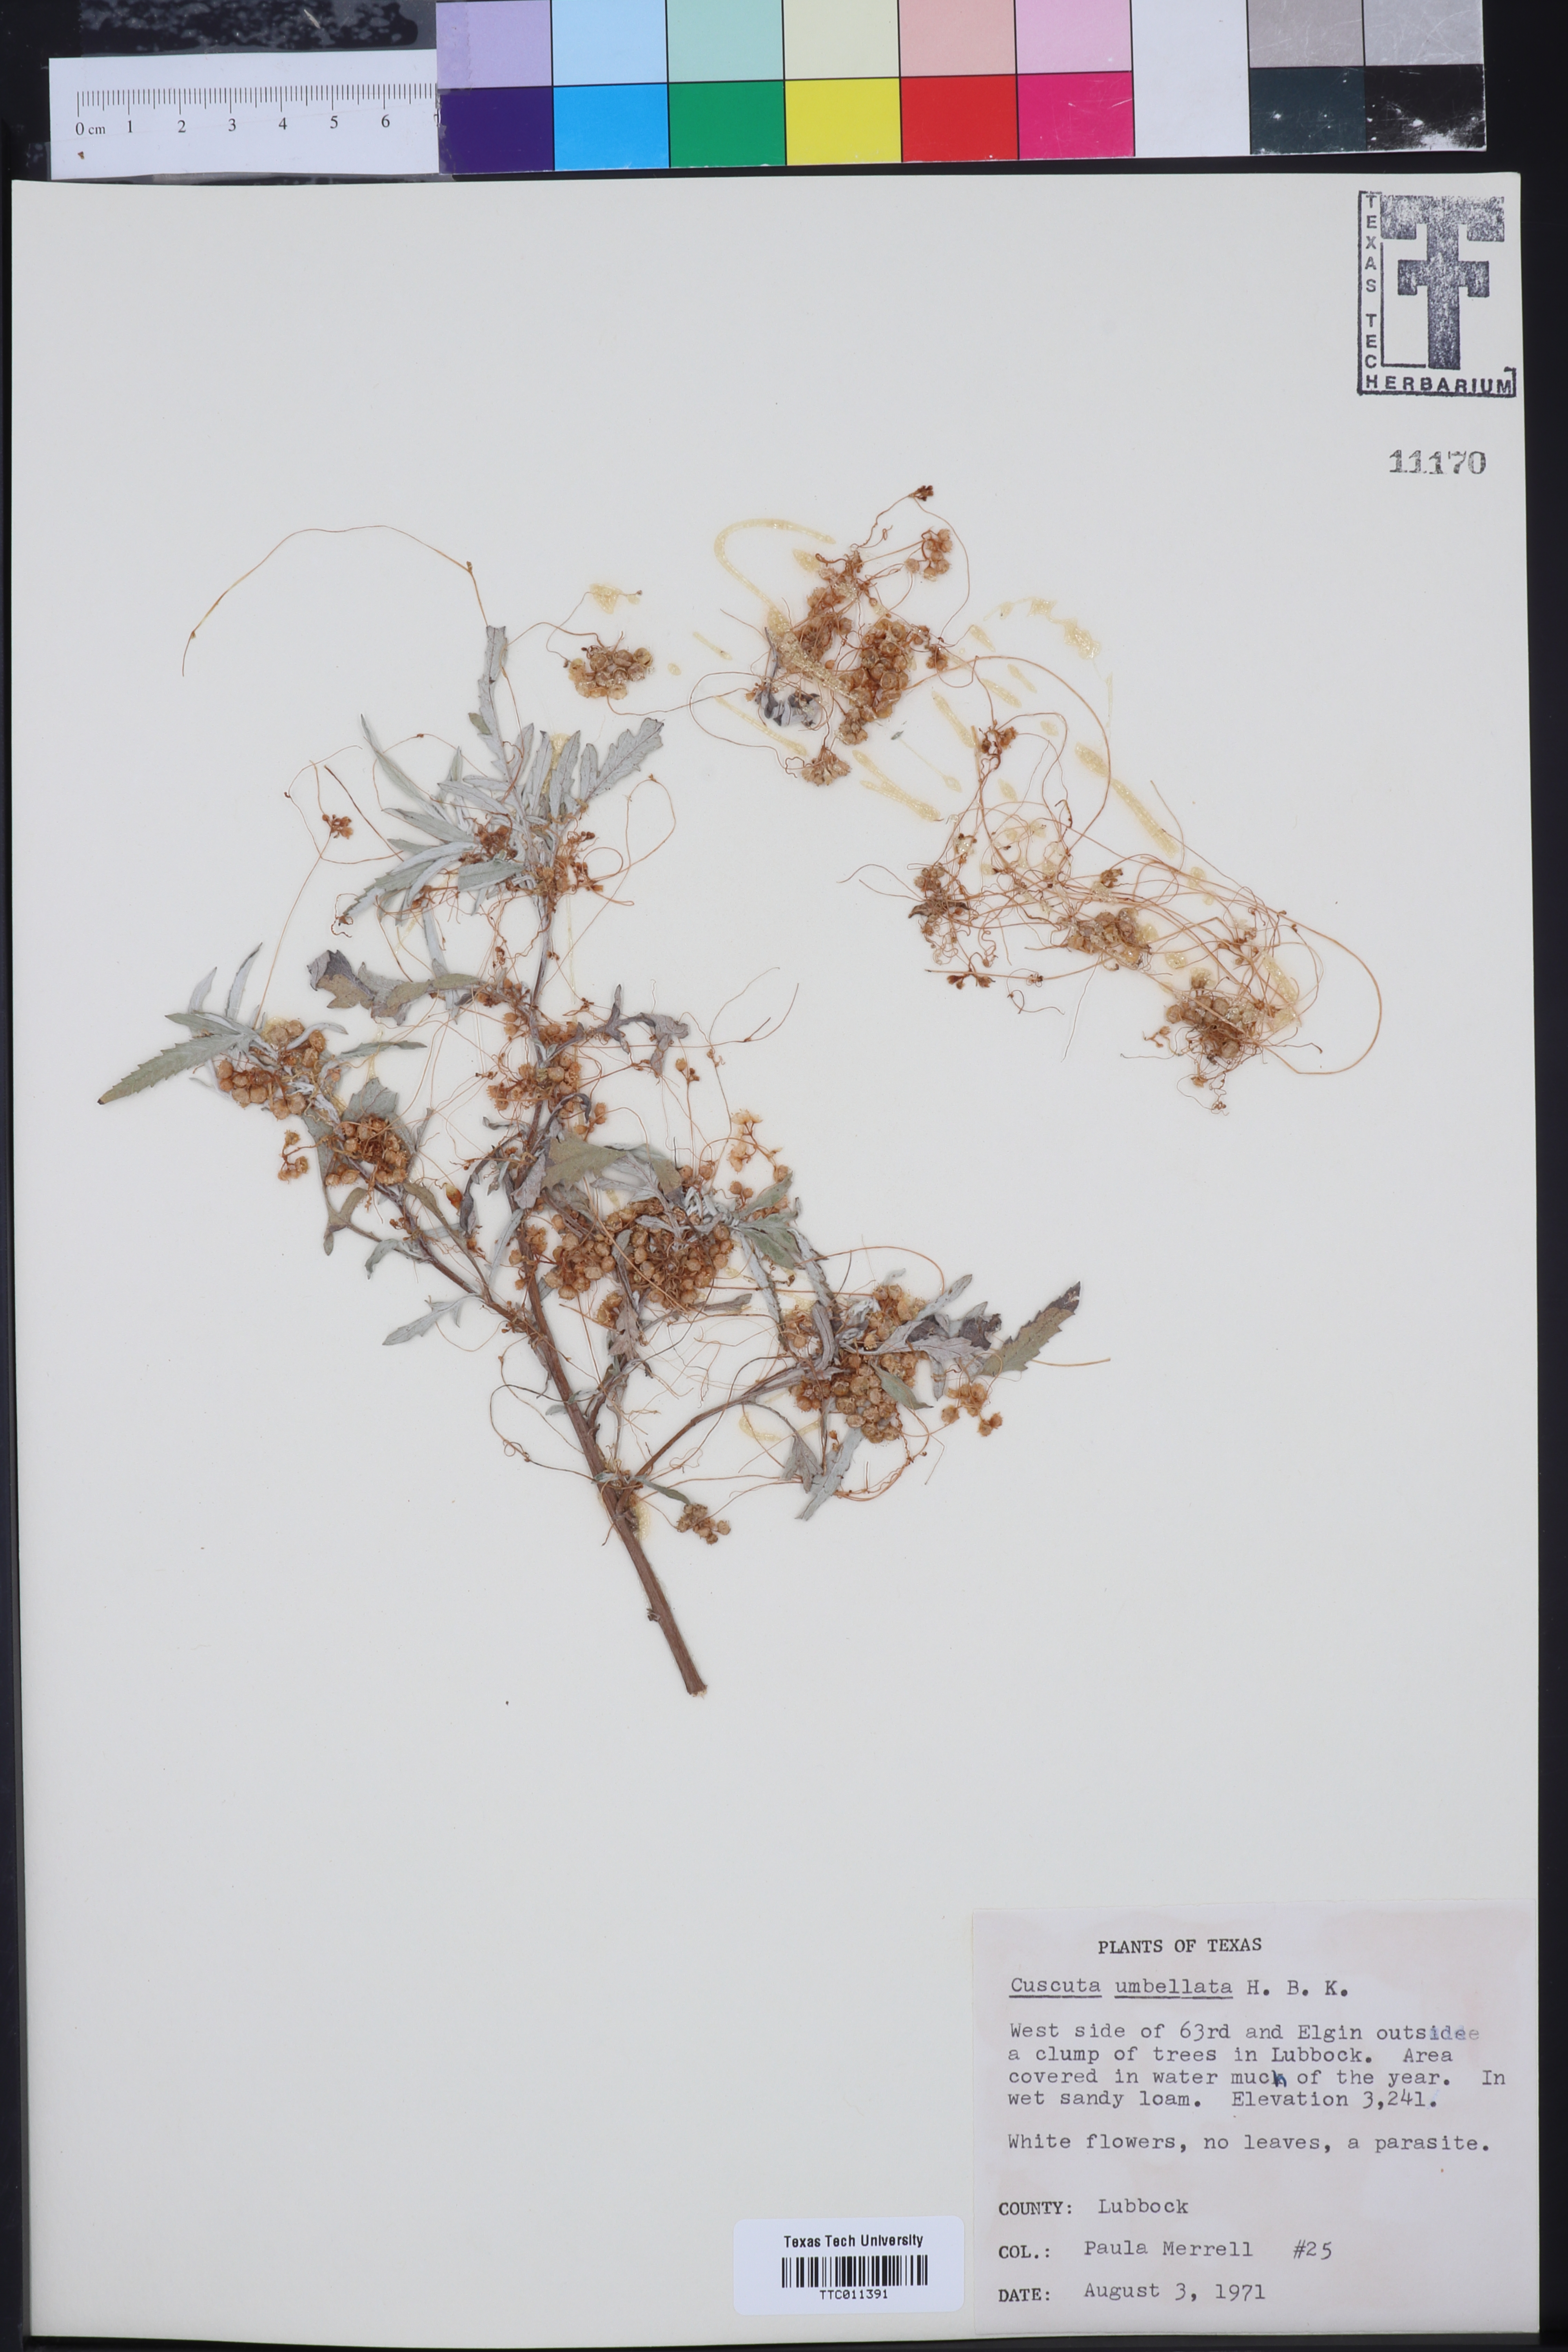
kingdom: Plantae
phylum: Tracheophyta
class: Magnoliopsida
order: Solanales
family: Convolvulaceae
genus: Cuscuta
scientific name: Cuscuta umbellata
